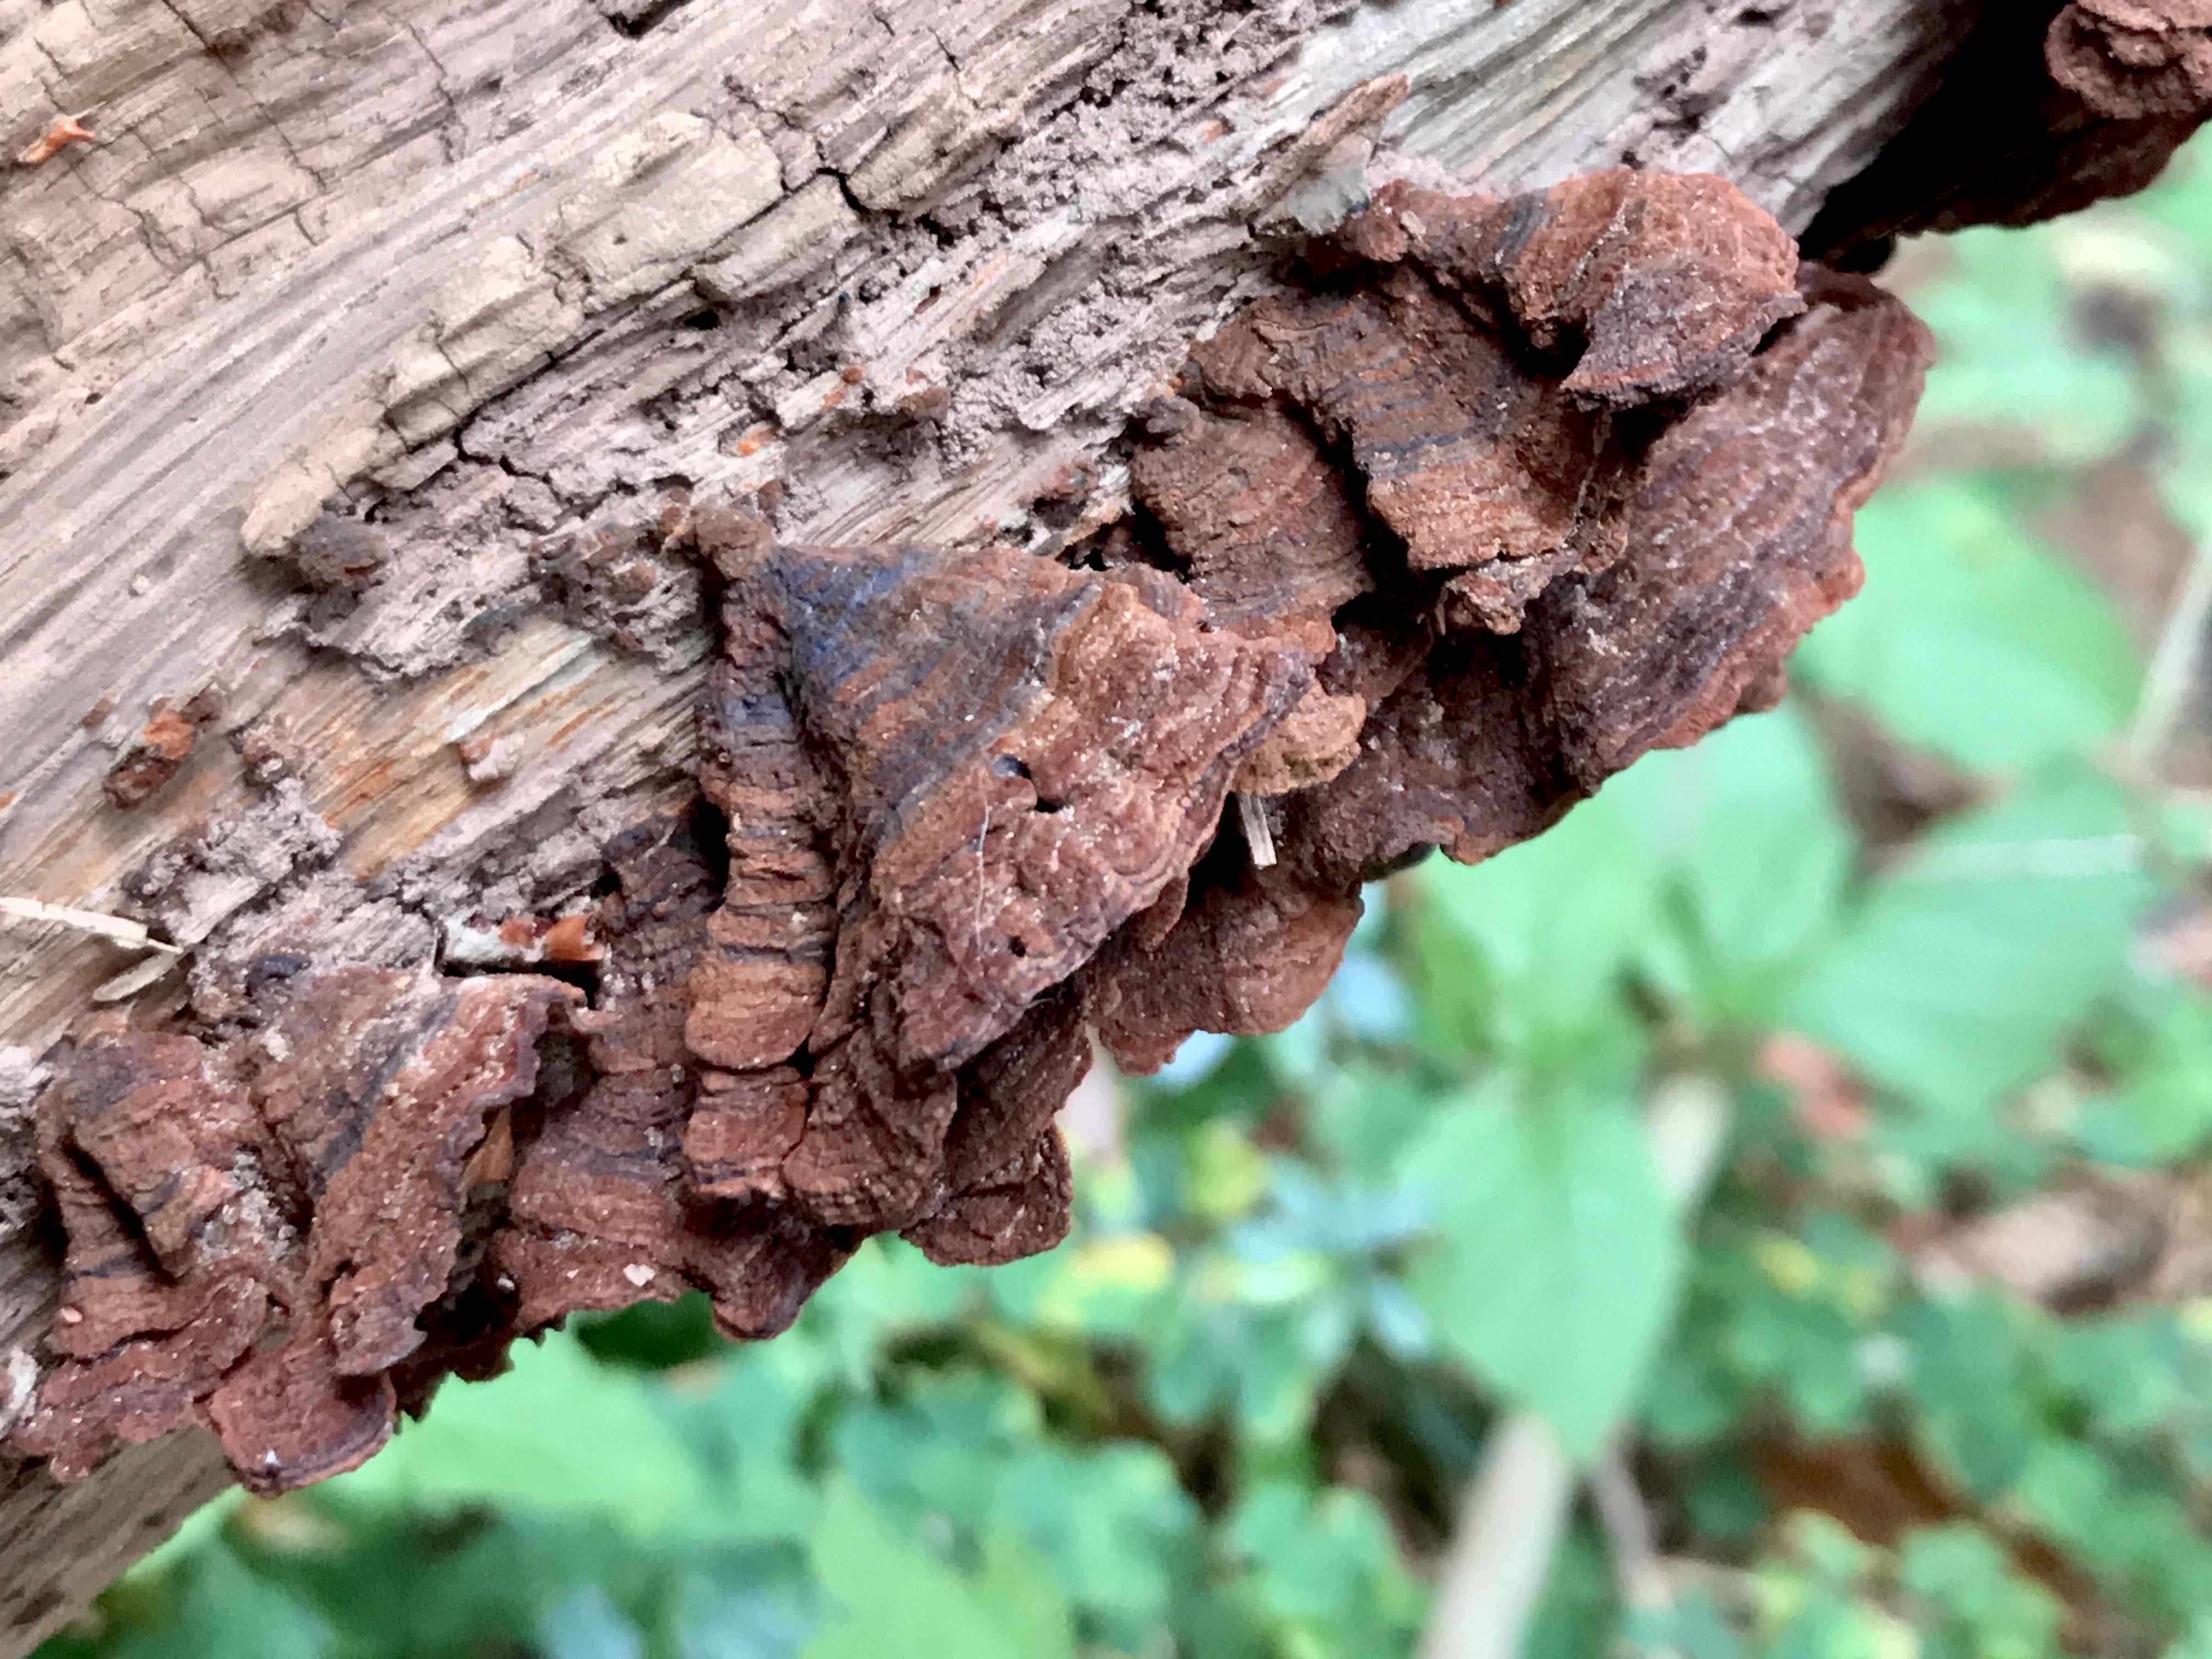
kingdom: Fungi
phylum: Basidiomycota
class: Agaricomycetes
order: Hymenochaetales
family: Hymenochaetaceae
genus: Hymenochaete
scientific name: Hymenochaete rubiginosa
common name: stiv ruslædersvamp
